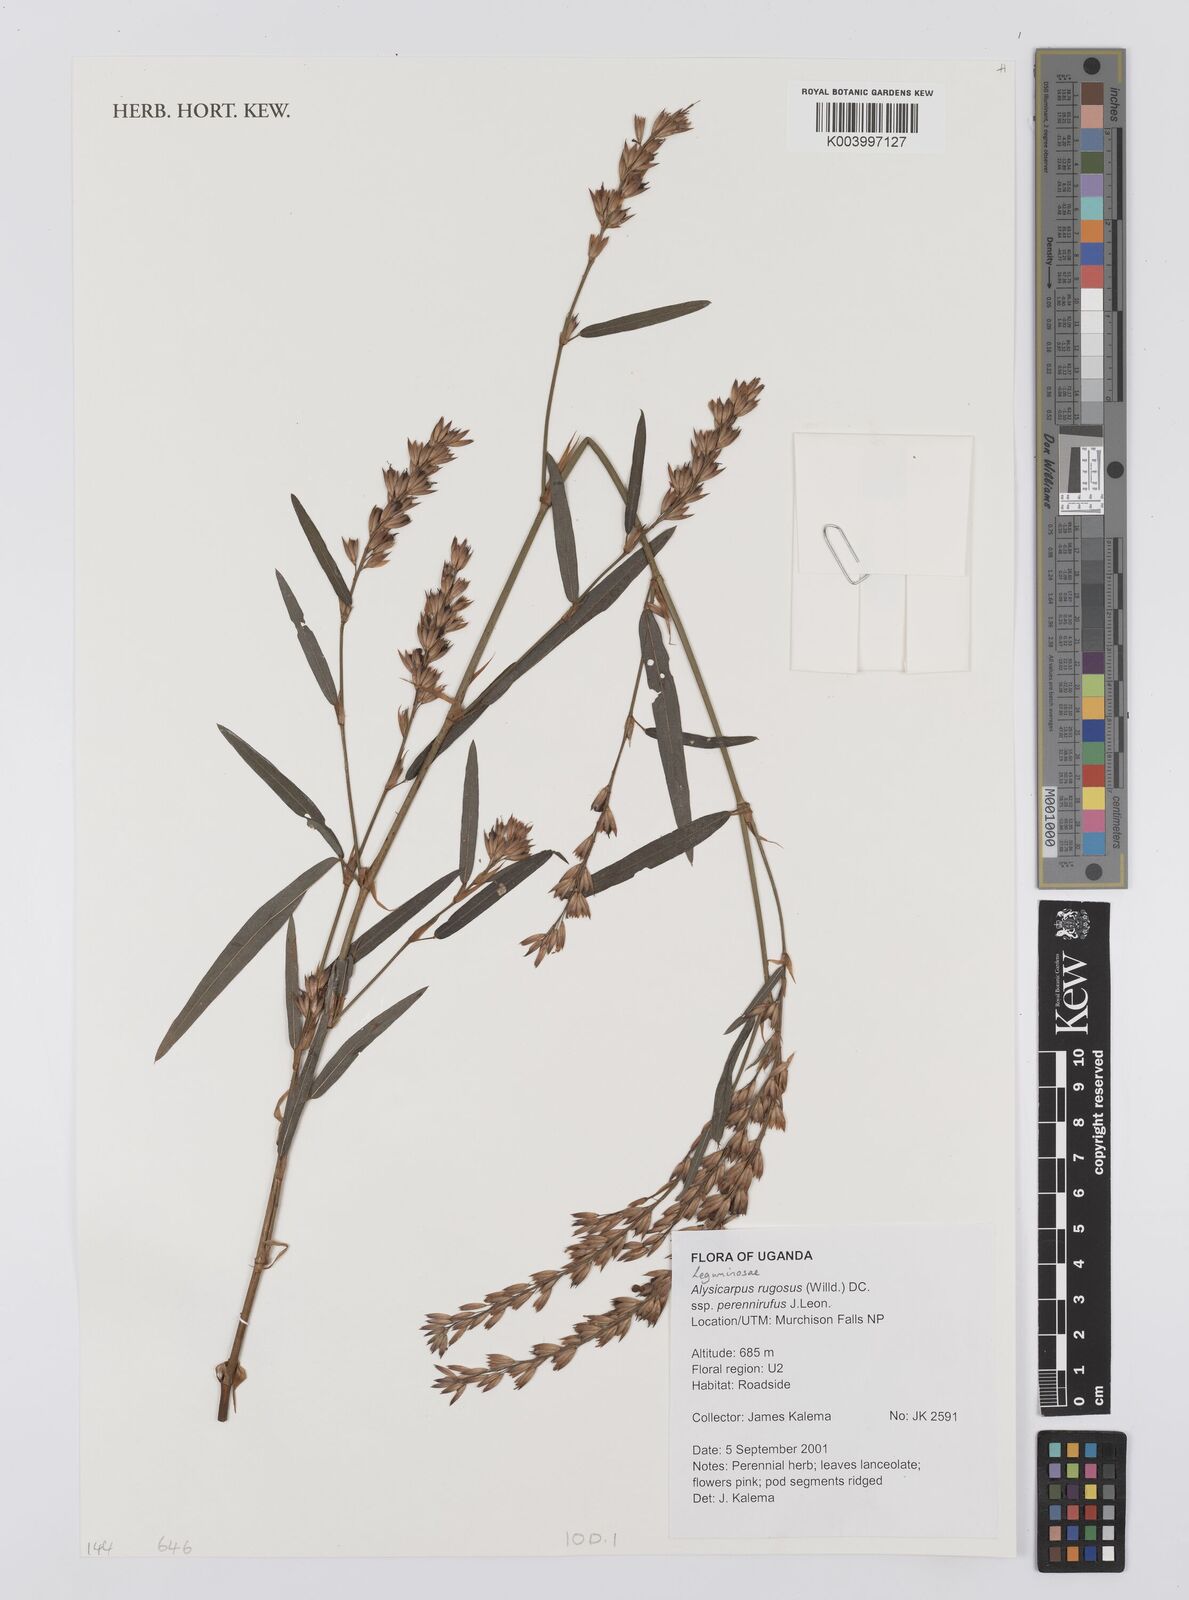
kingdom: Plantae
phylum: Tracheophyta
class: Magnoliopsida
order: Fabales
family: Fabaceae
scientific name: Fabaceae
